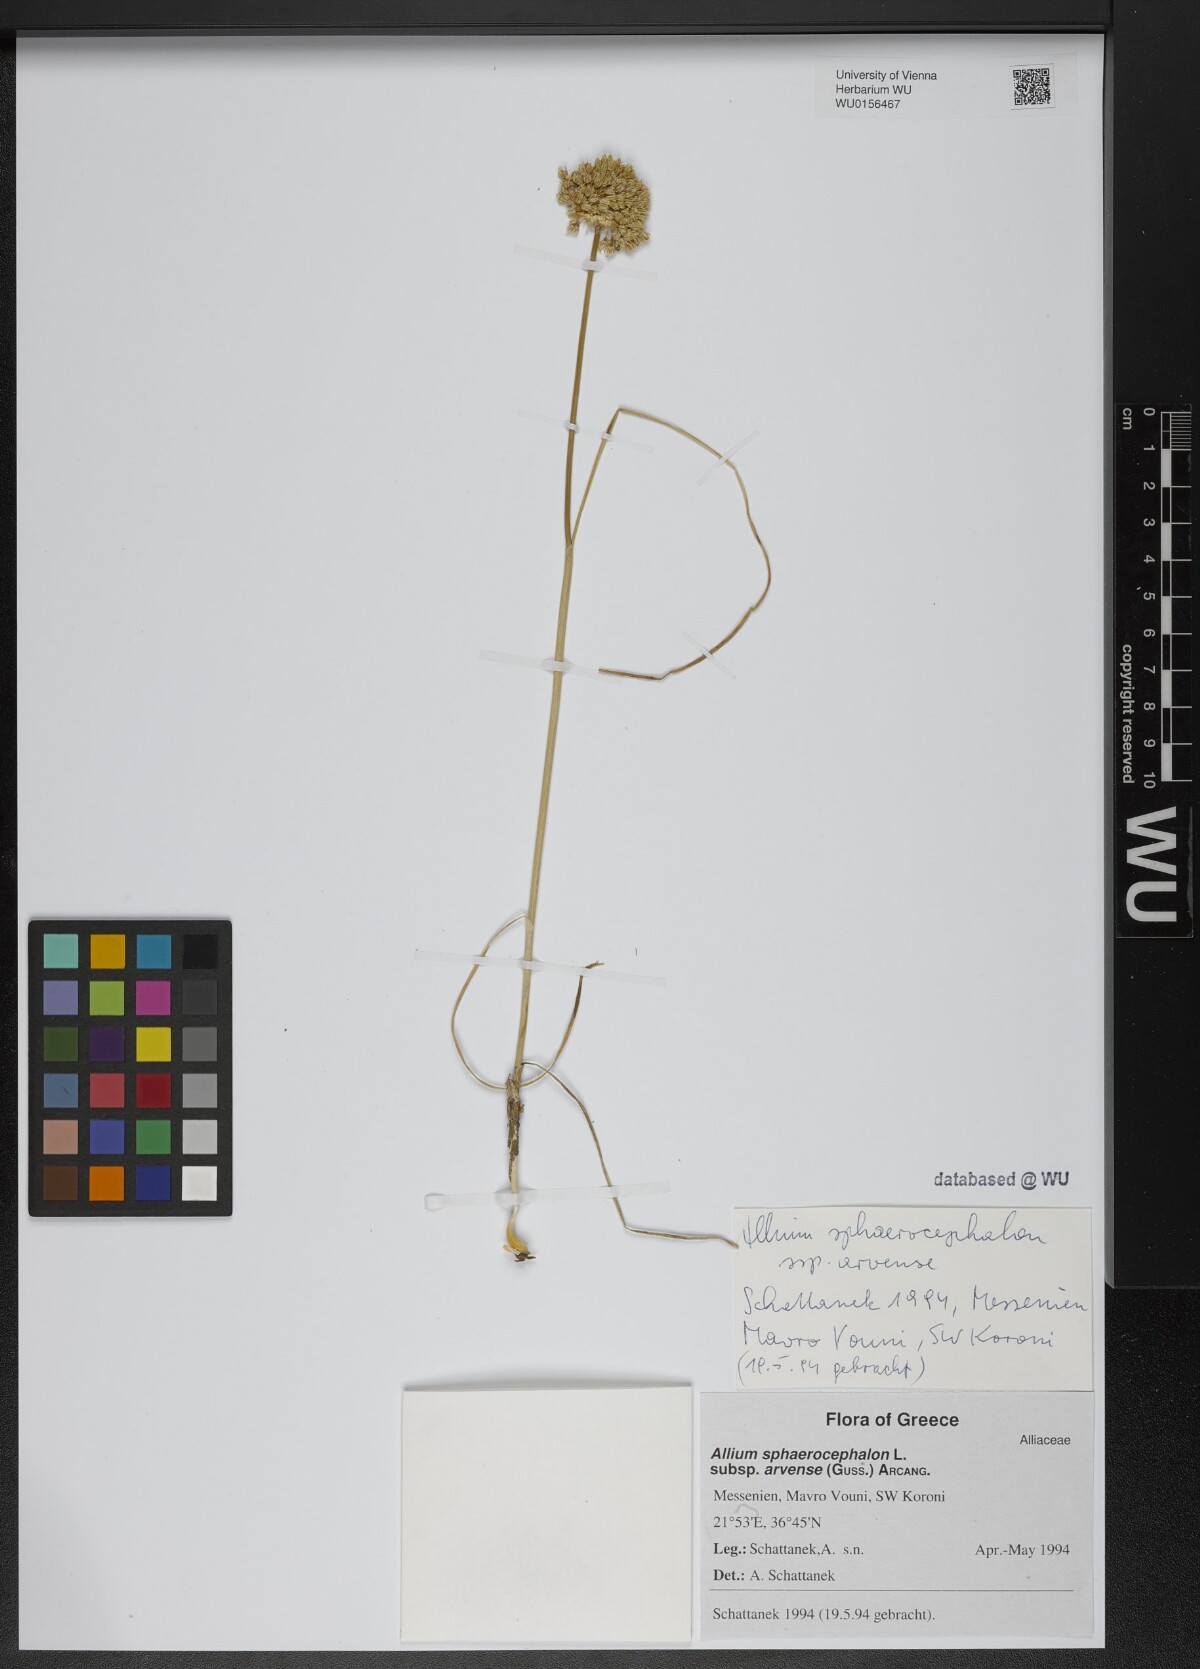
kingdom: Plantae
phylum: Tracheophyta
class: Liliopsida
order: Asparagales
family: Amaryllidaceae
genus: Allium
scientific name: Allium sphaerocephalon
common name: Round-headed leek
